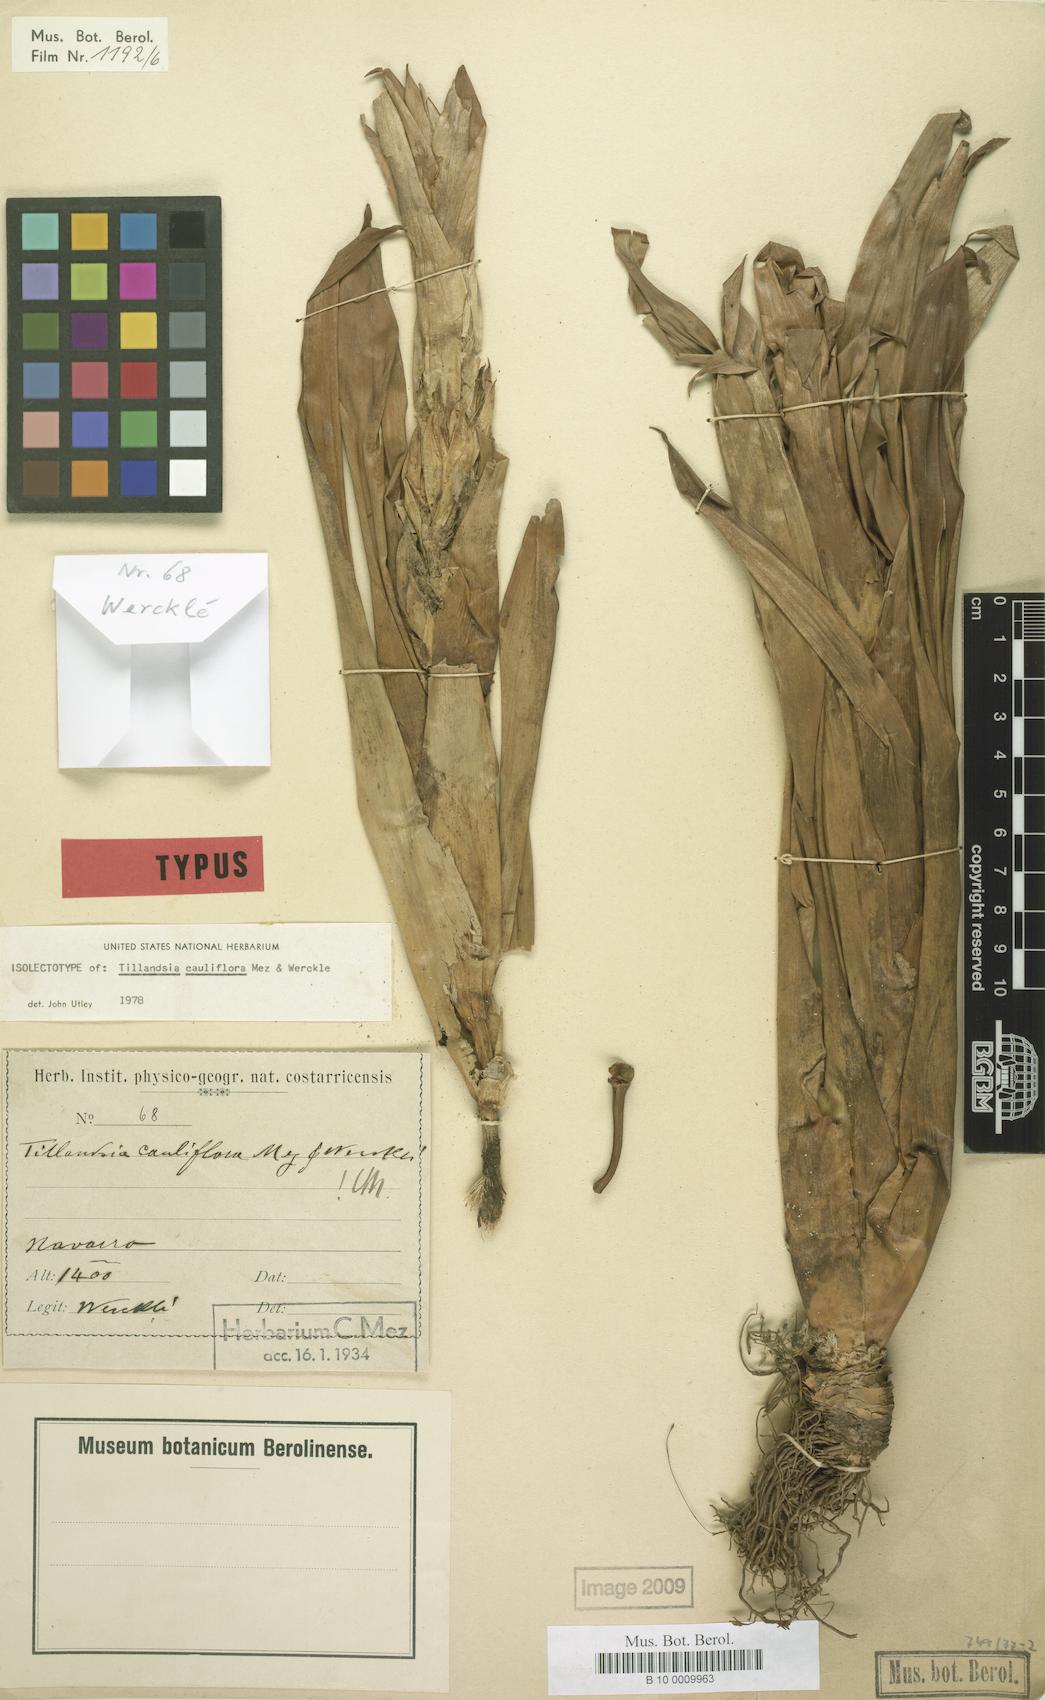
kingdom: Plantae
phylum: Tracheophyta
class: Liliopsida
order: Poales
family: Bromeliaceae
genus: Tillandsia
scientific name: Tillandsia cauliflora
